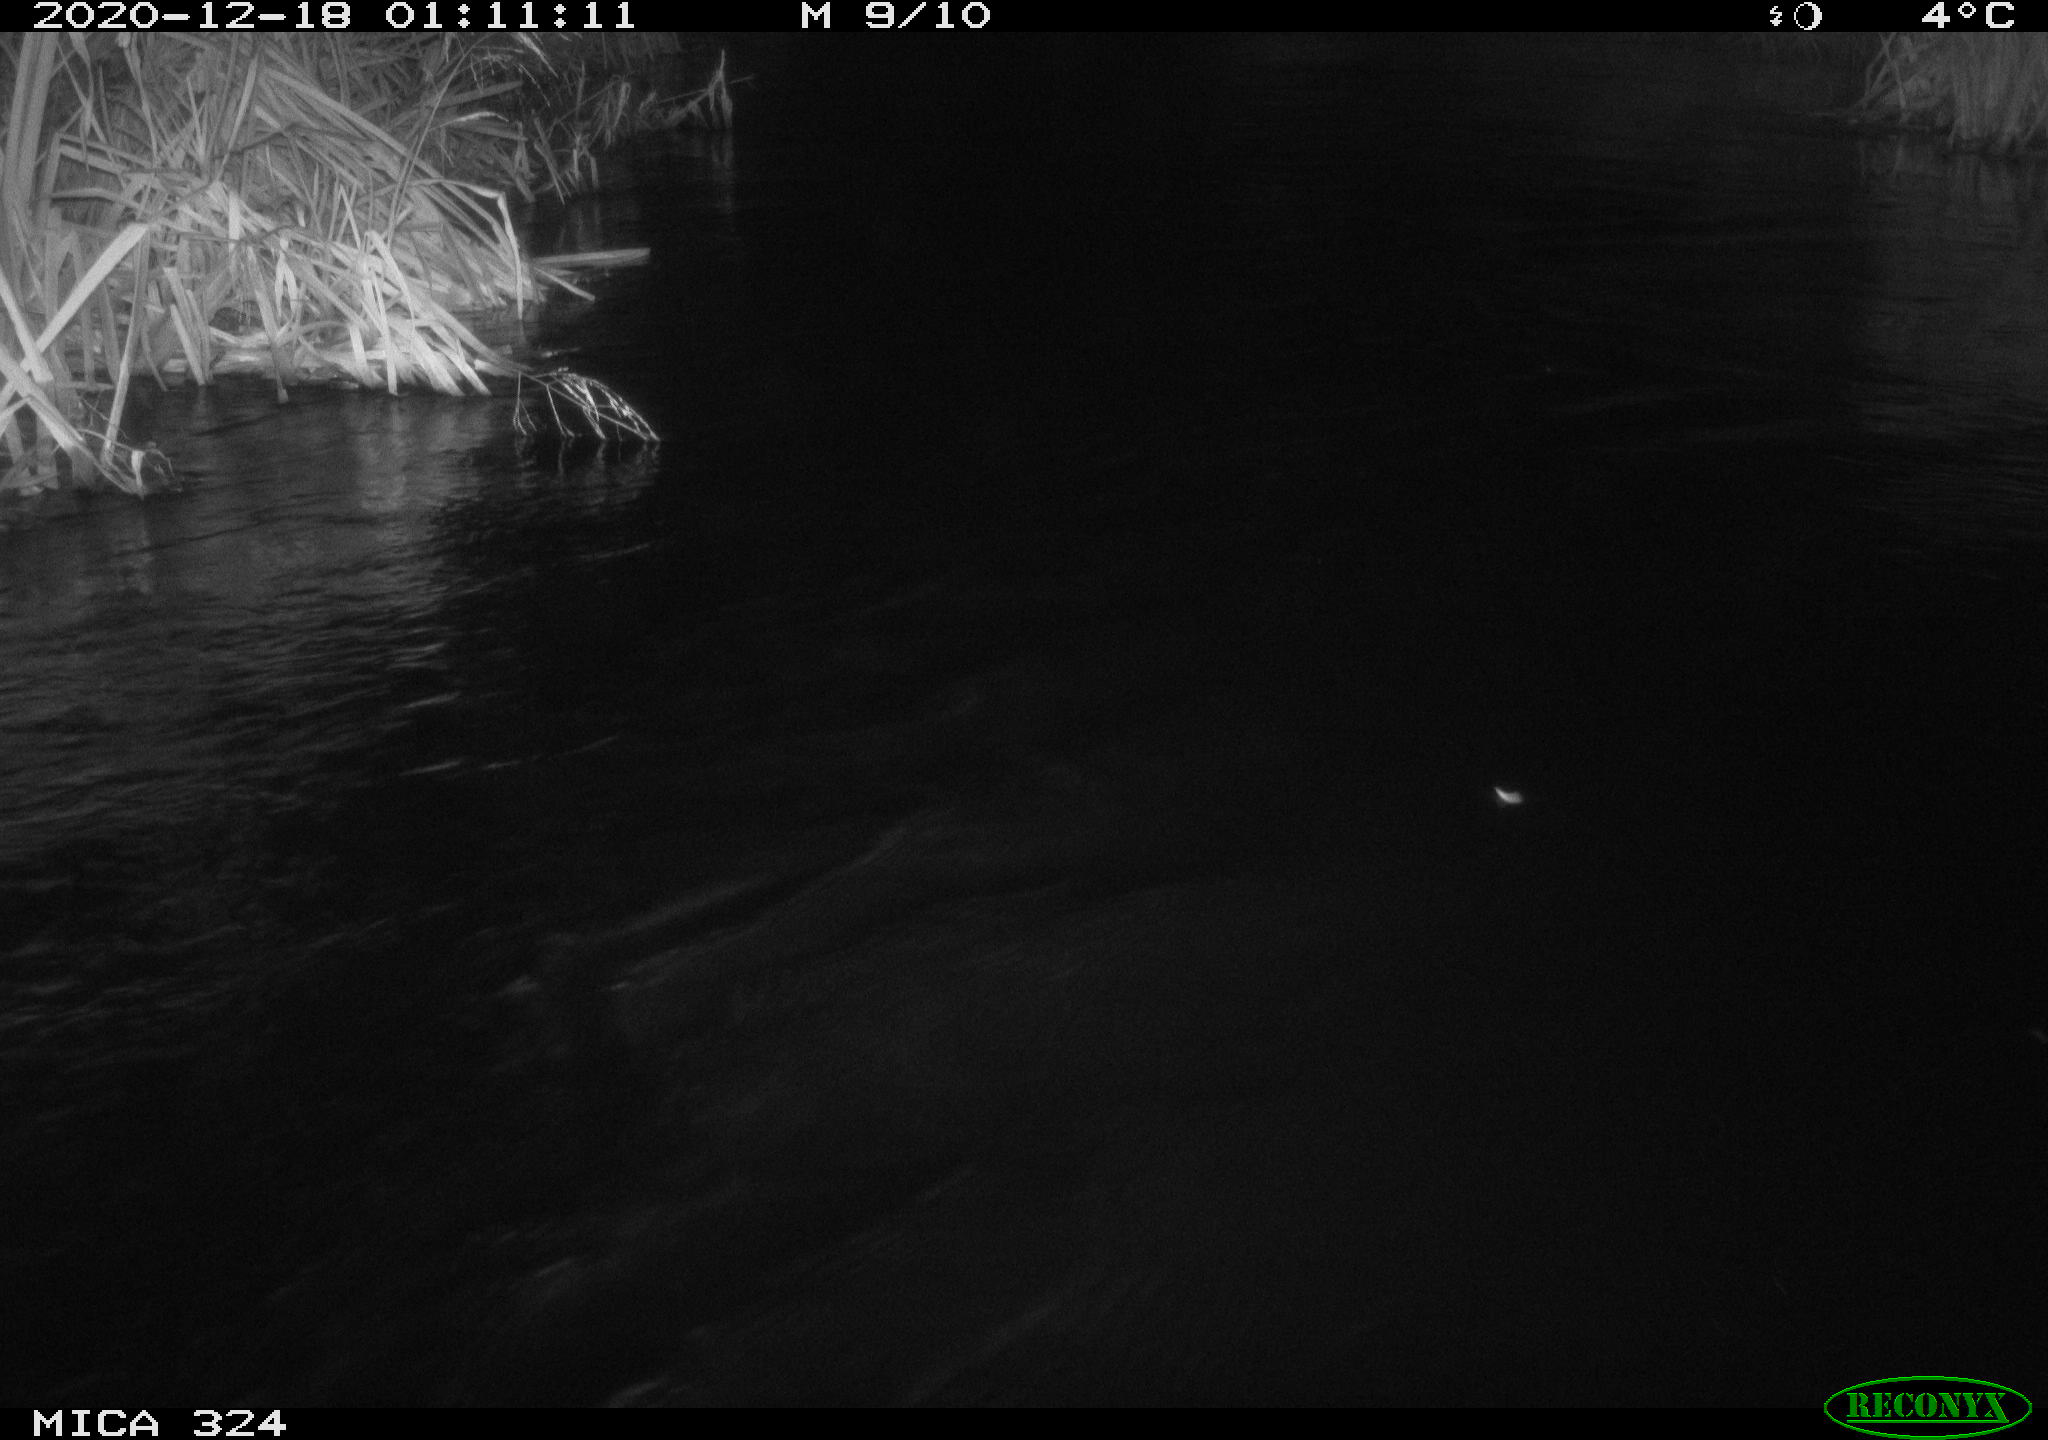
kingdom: Animalia
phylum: Chordata
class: Mammalia
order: Rodentia
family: Myocastoridae
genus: Myocastor
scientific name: Myocastor coypus
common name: Coypu
